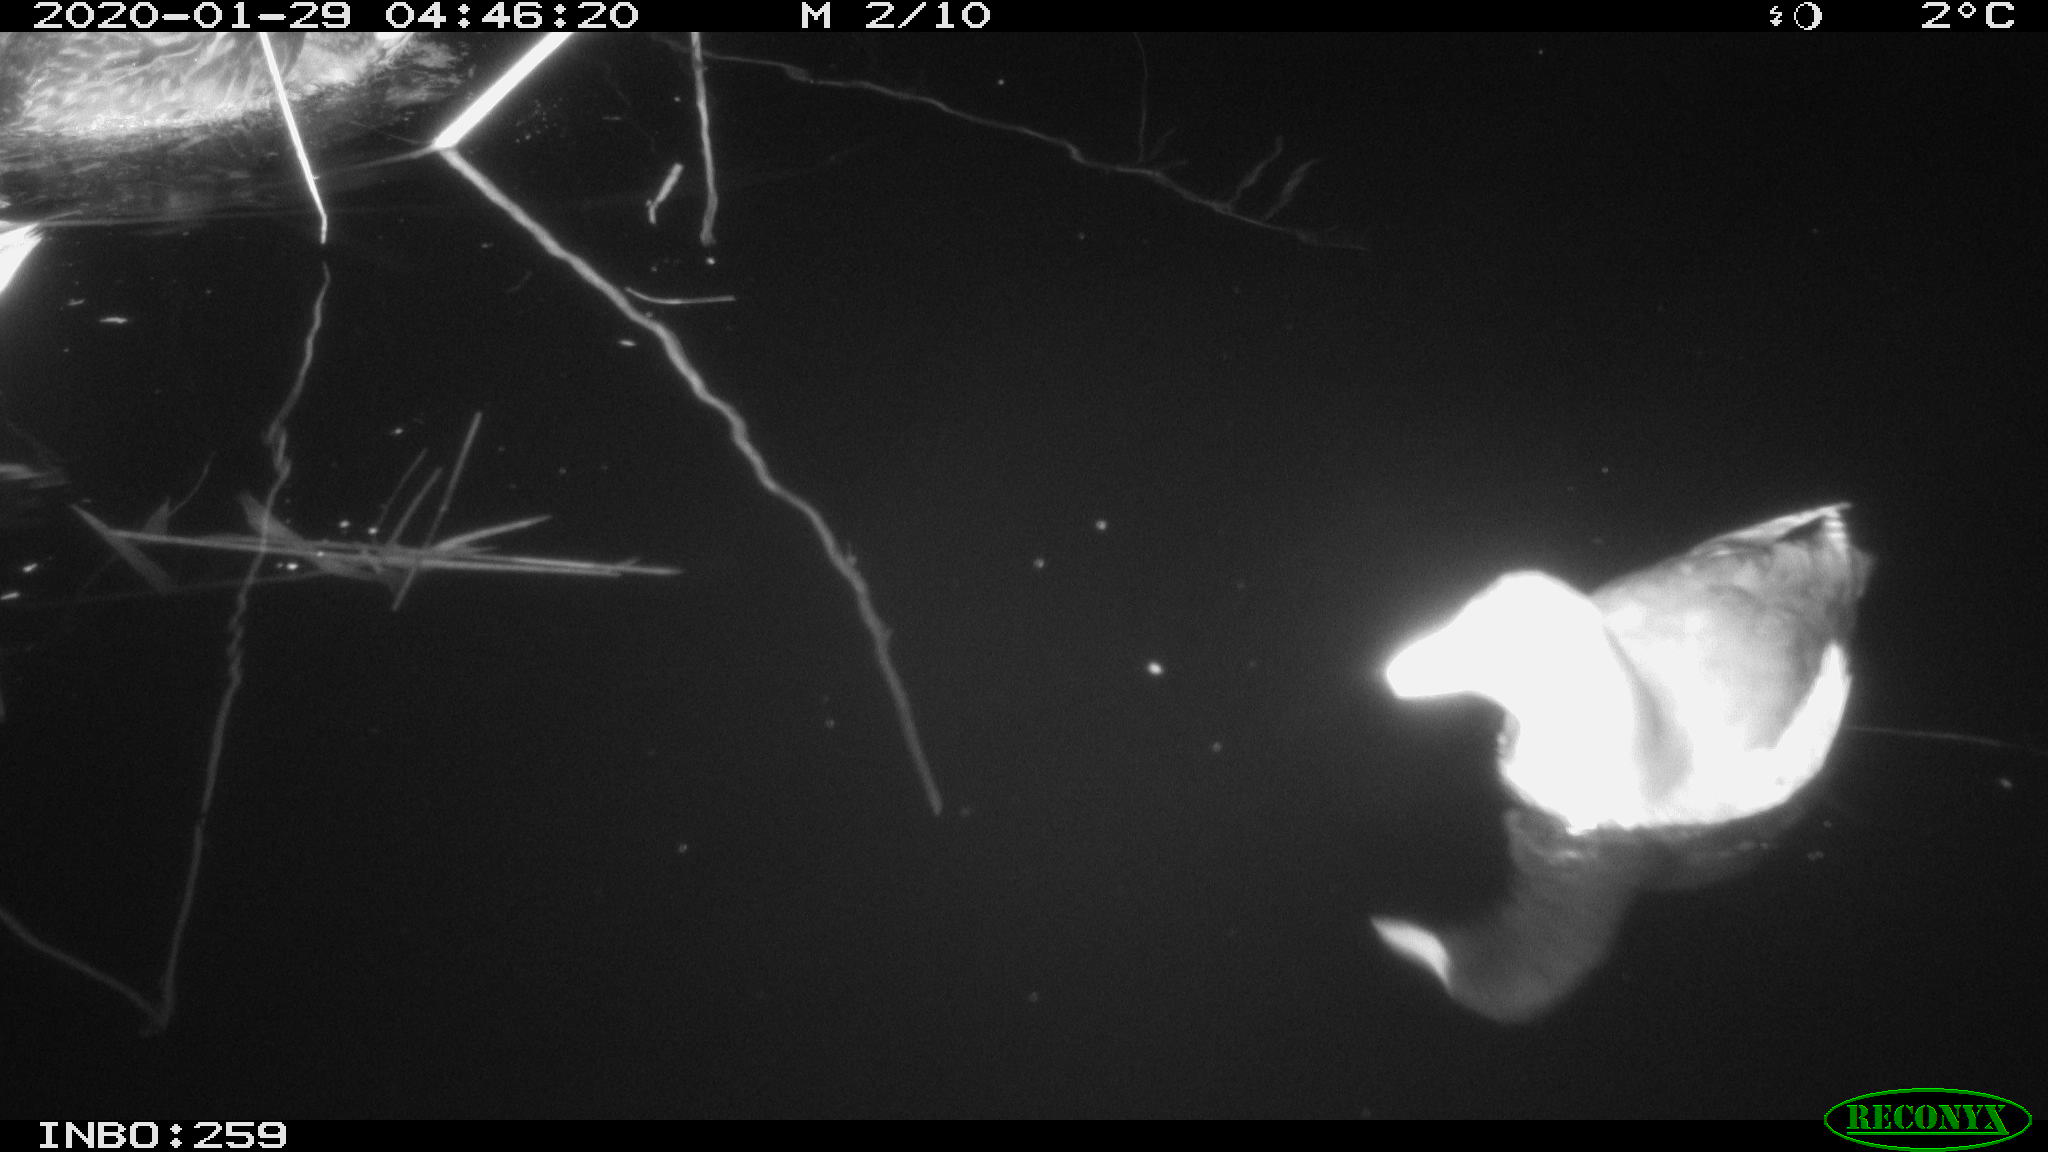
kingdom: Animalia
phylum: Chordata
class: Aves
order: Gruiformes
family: Rallidae
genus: Gallinula
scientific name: Gallinula chloropus
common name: Common moorhen
